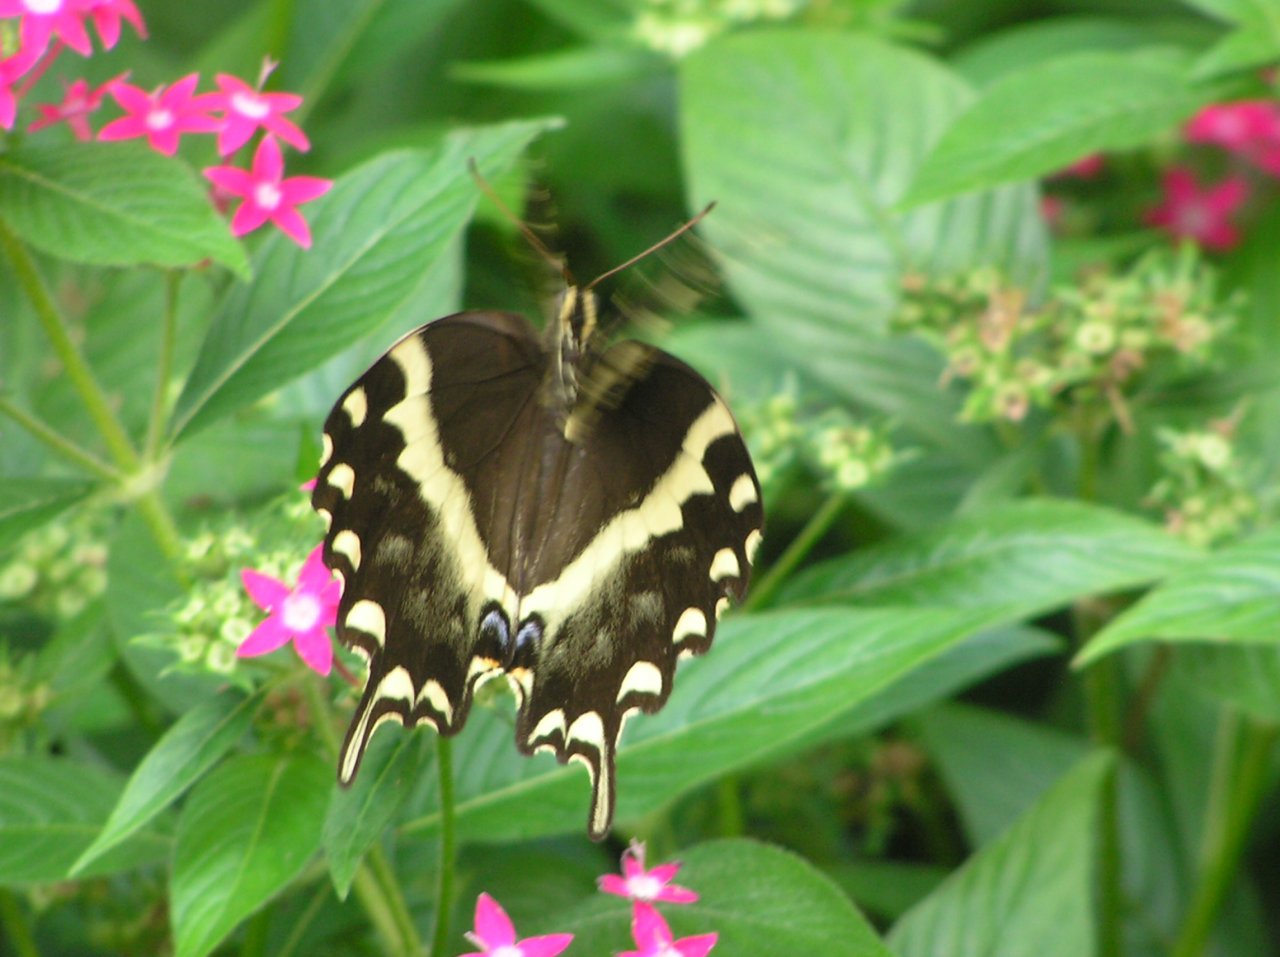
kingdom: Animalia
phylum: Arthropoda
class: Insecta
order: Lepidoptera
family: Papilionidae
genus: Pterourus
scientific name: Pterourus palamedes
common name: Palamedes Swallowtail
